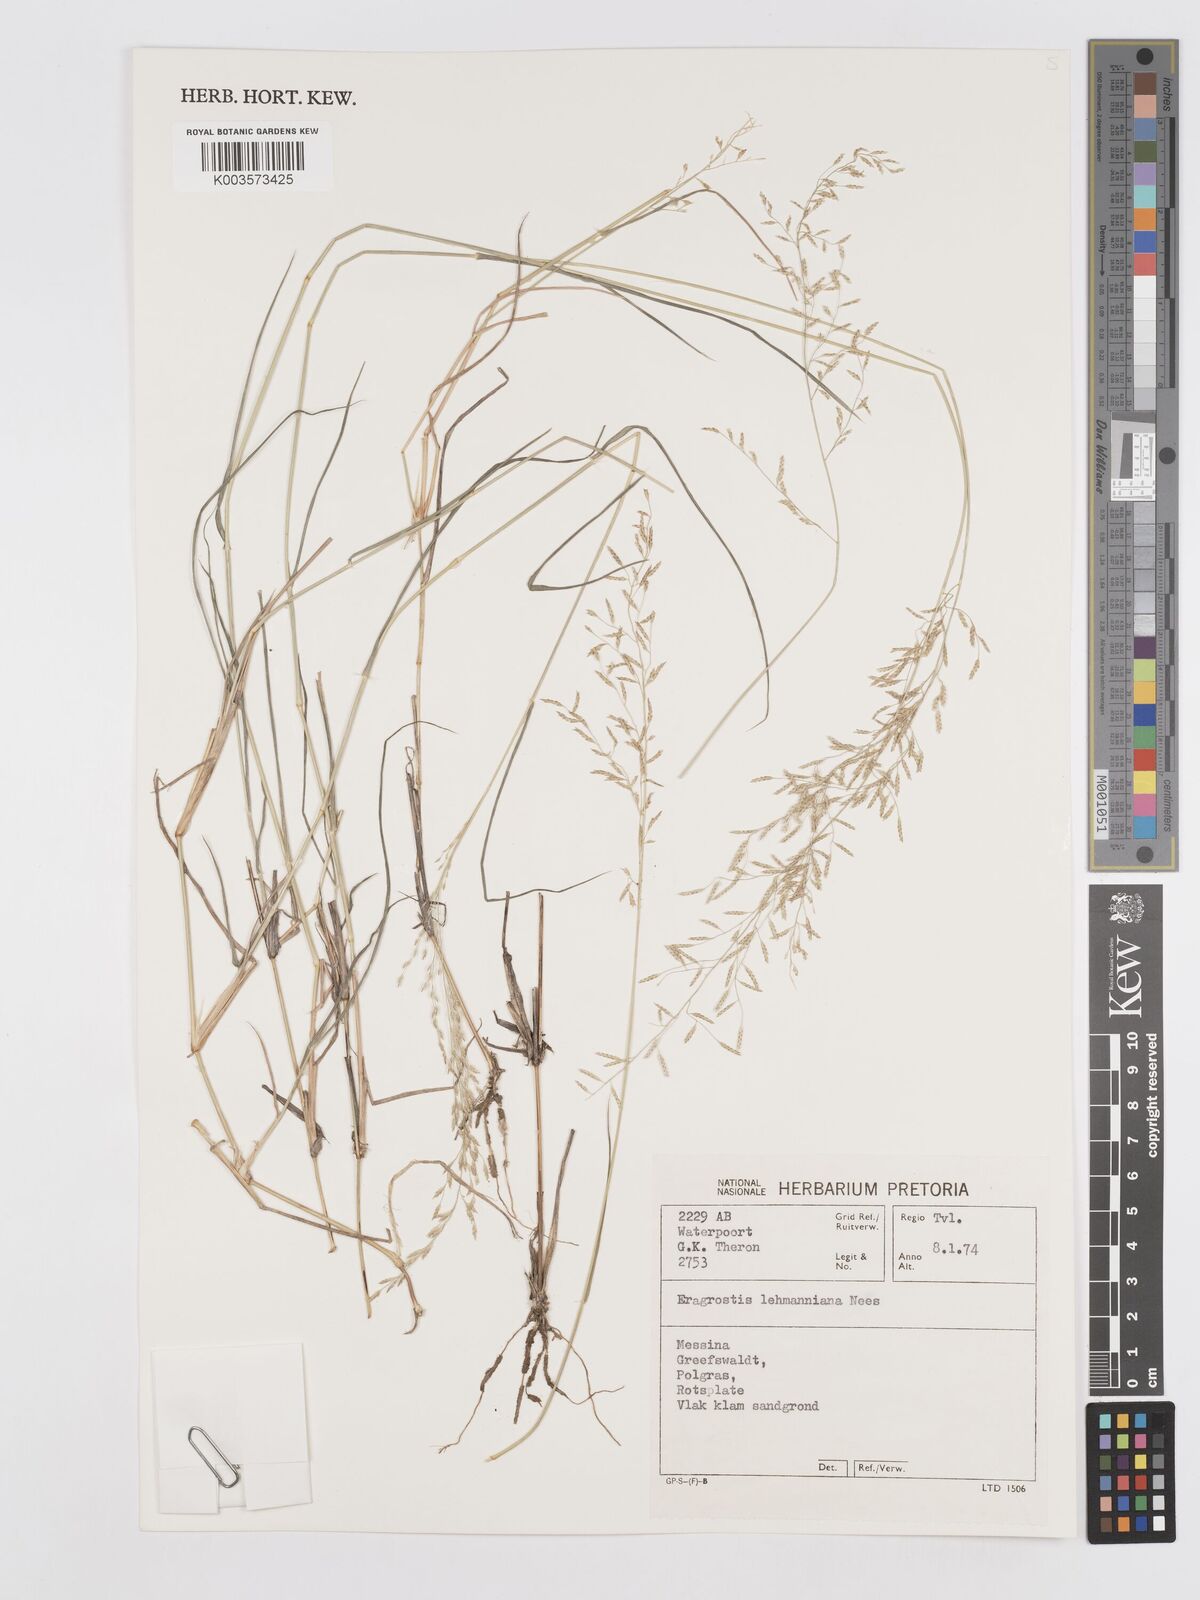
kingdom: Plantae
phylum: Tracheophyta
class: Liliopsida
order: Poales
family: Poaceae
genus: Eragrostis
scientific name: Eragrostis lehmanniana
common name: Lehmann lovegrass
